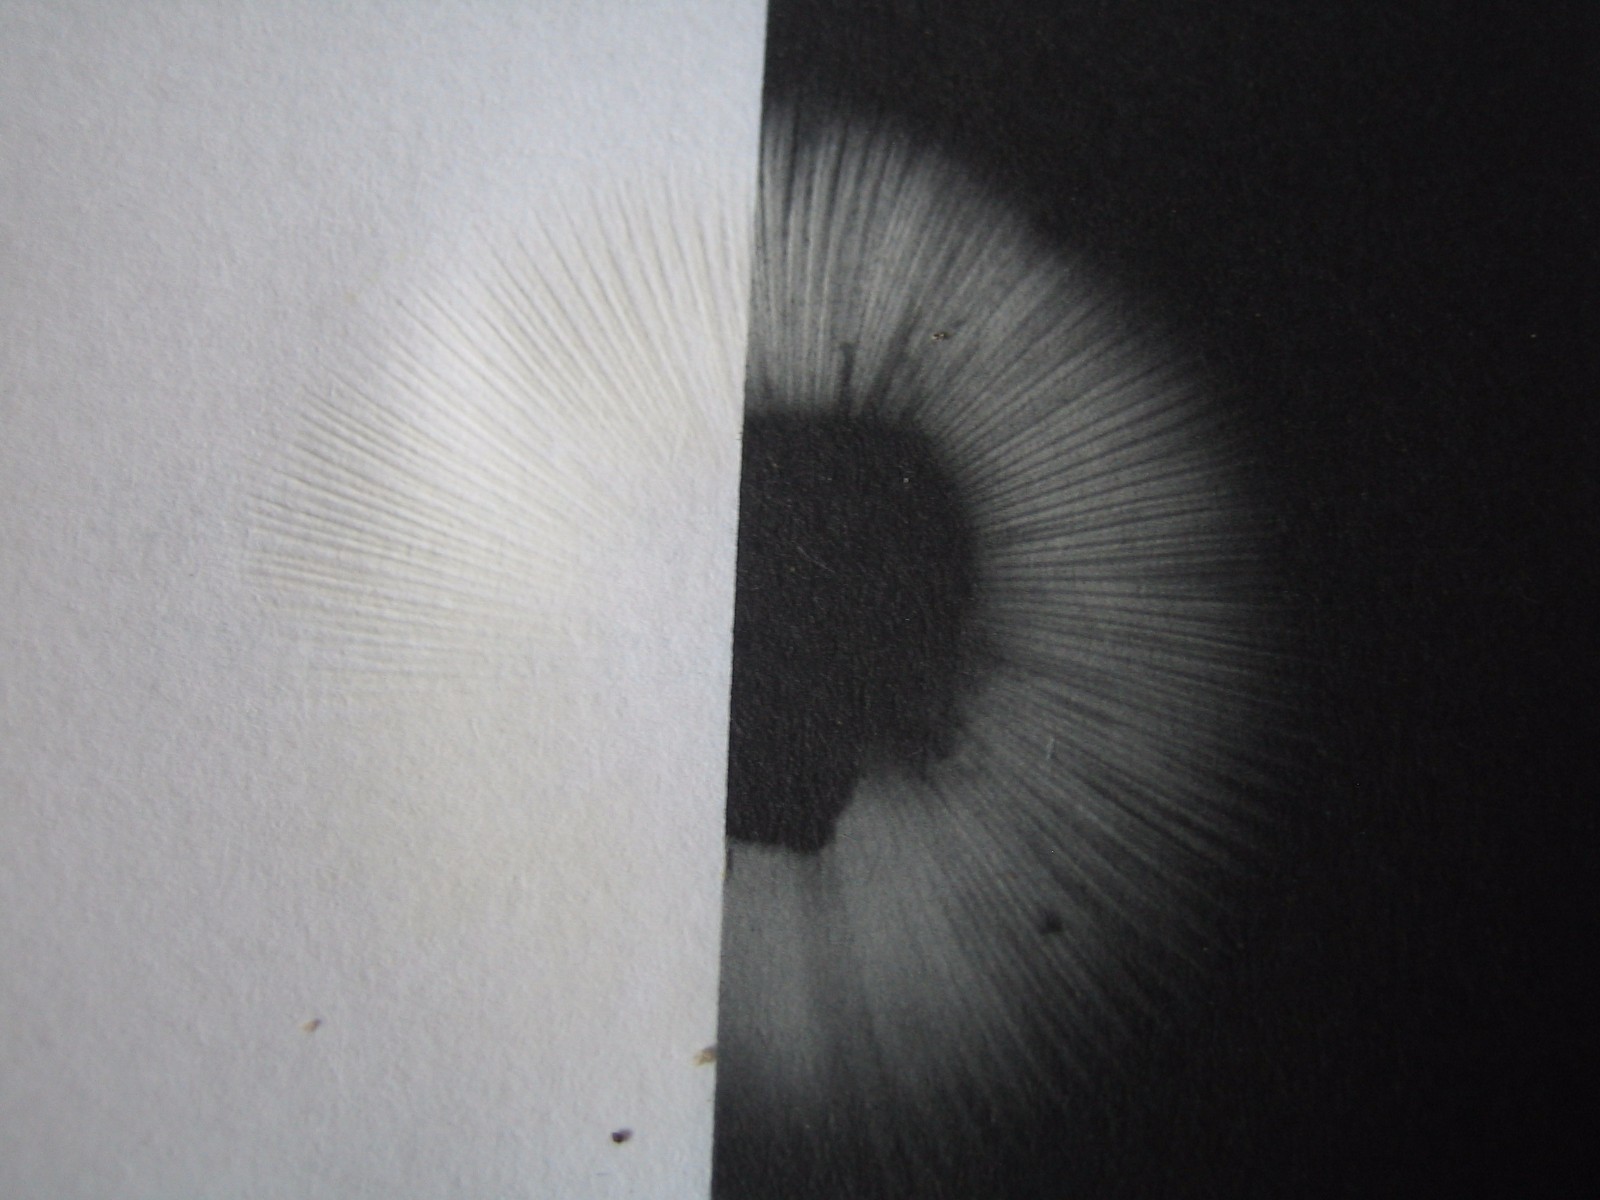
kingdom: Fungi
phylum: Basidiomycota
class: Agaricomycetes
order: Russulales
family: Russulaceae
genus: Russula
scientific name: Russula ochroleuca
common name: okkergul skørhat
